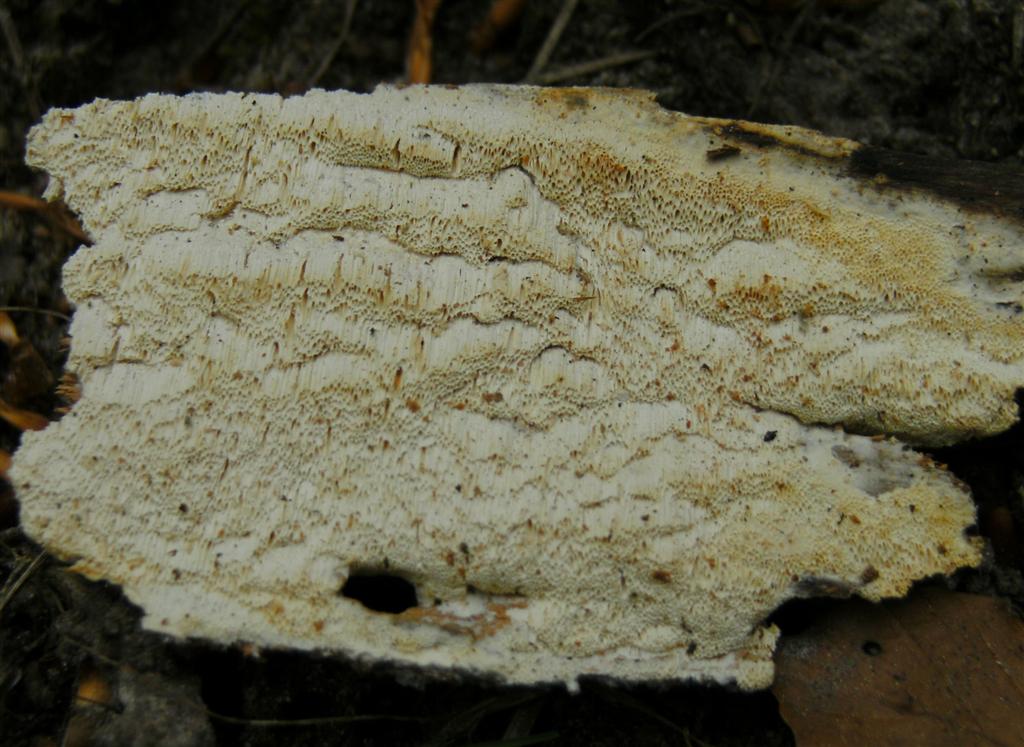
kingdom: Fungi
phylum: Basidiomycota
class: Agaricomycetes
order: Polyporales
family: Fomitopsidaceae
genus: Daedalea
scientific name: Daedalea xantha
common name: gul sejporesvamp
